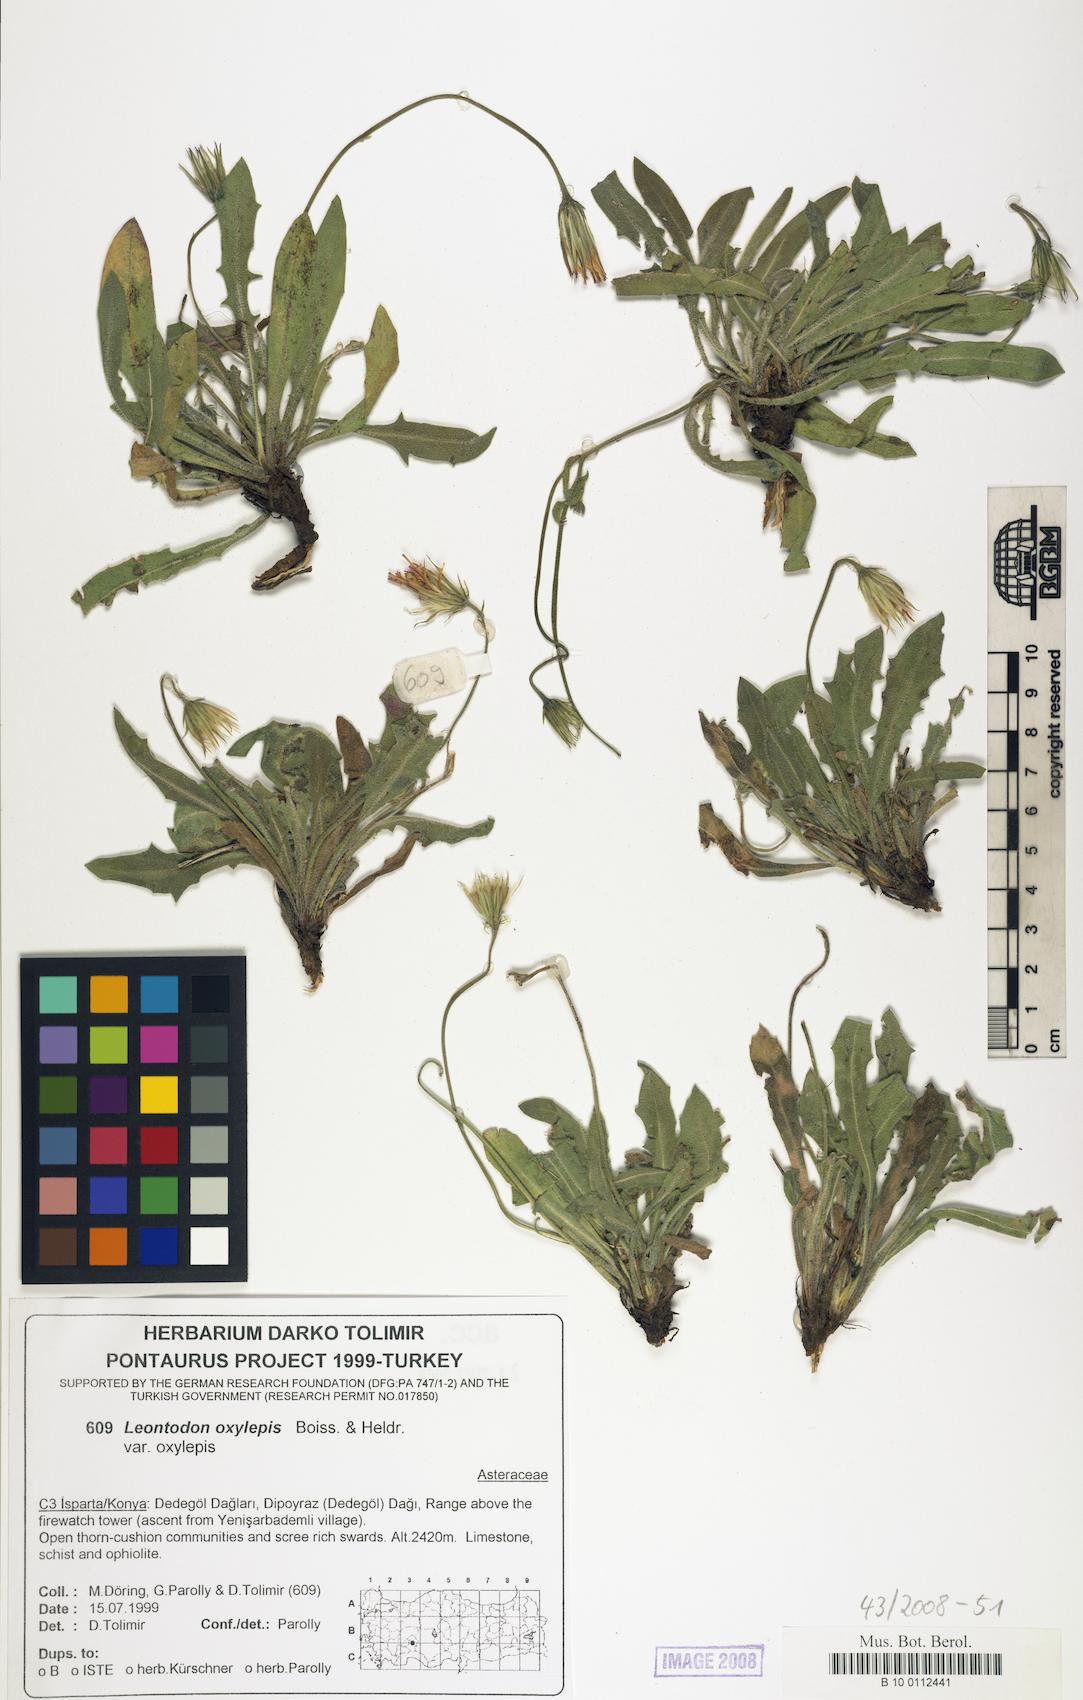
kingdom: Plantae
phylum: Tracheophyta
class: Magnoliopsida
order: Asterales
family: Asteraceae
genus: Leontodon
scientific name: Leontodon oxylepis
